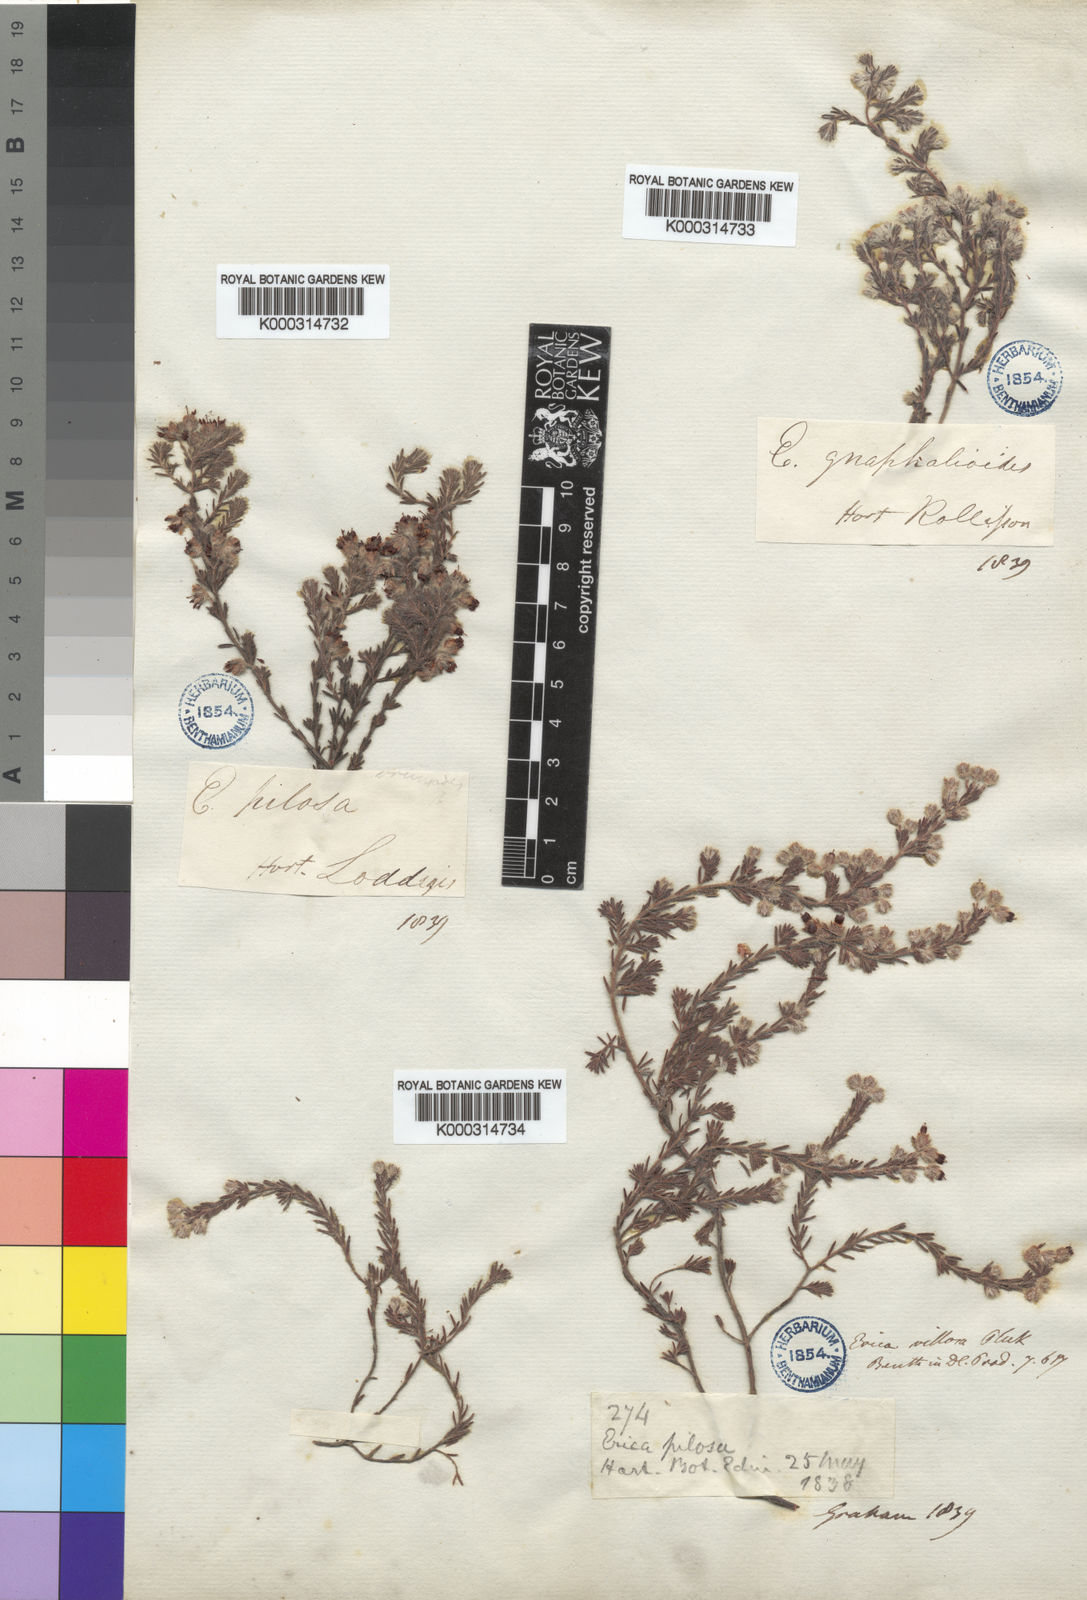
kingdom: Plantae
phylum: Tracheophyta
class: Magnoliopsida
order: Ericales
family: Ericaceae
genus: Erica
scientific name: Erica
